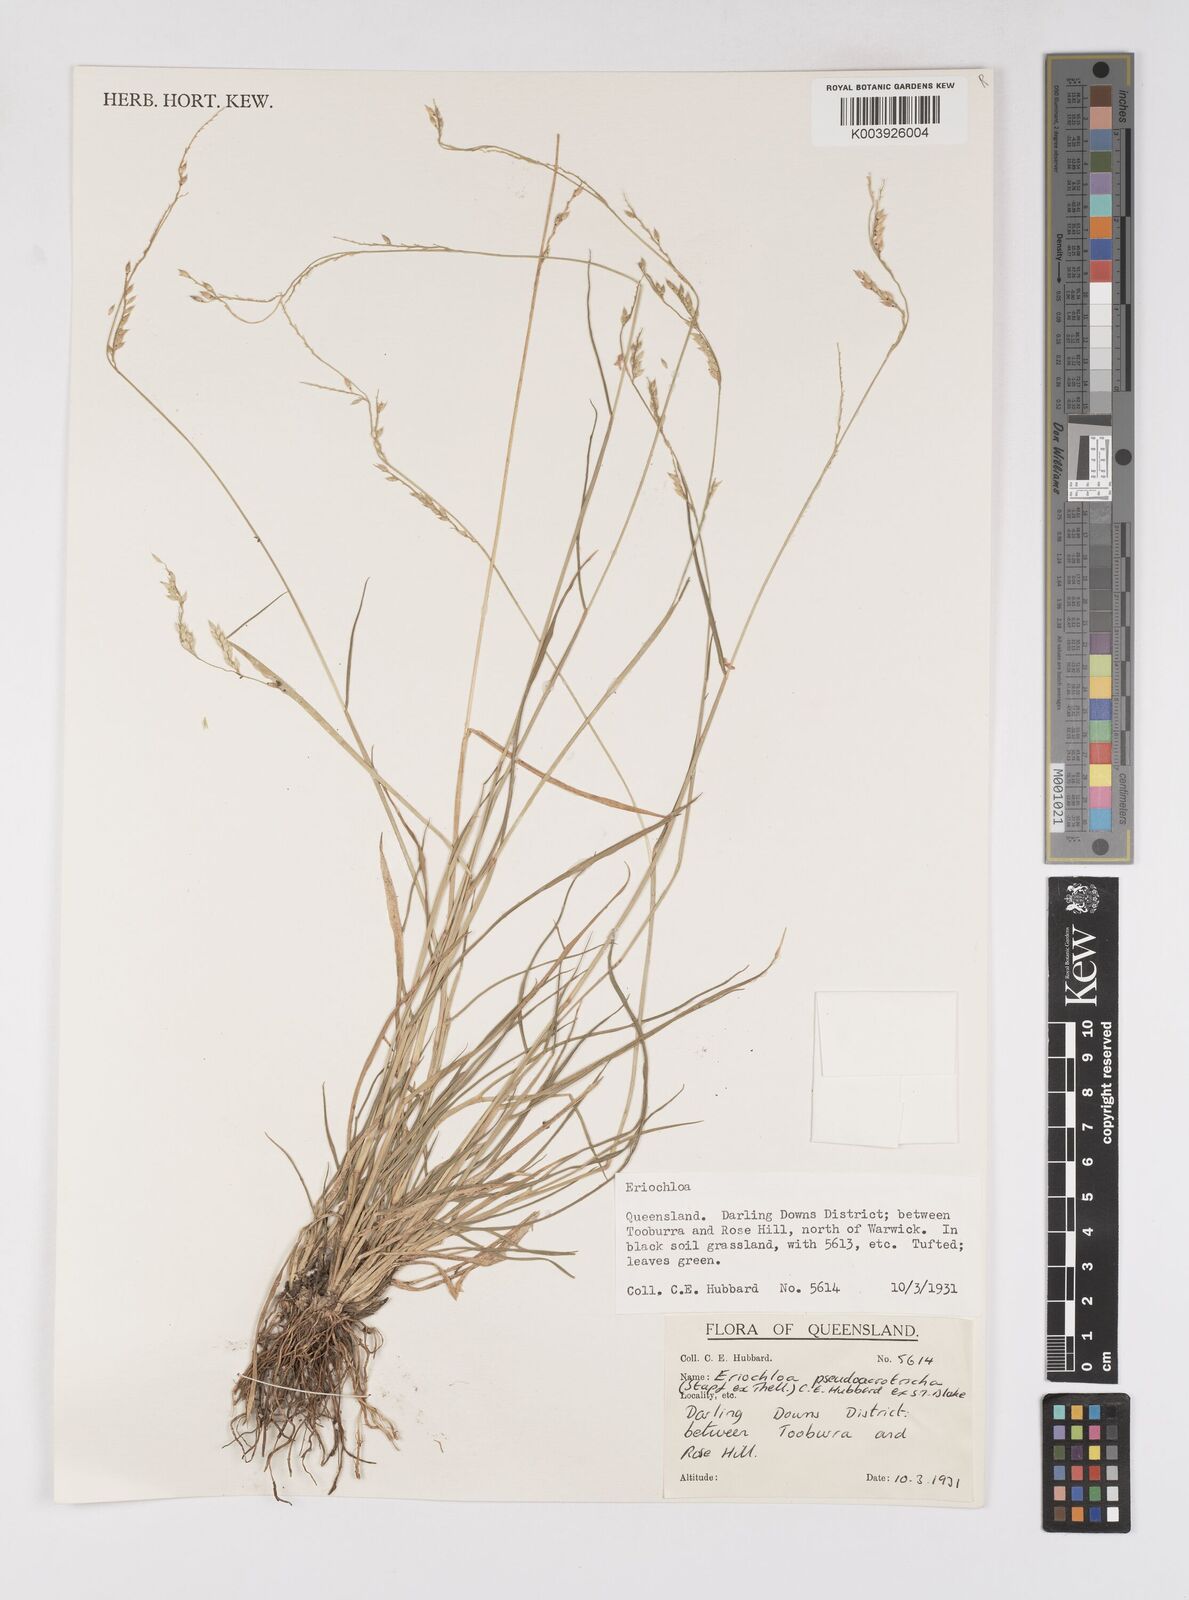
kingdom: Plantae
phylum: Tracheophyta
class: Liliopsida
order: Poales
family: Poaceae
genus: Eriochloa
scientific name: Eriochloa pseudoacrotricha
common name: Perennial cup-grass
